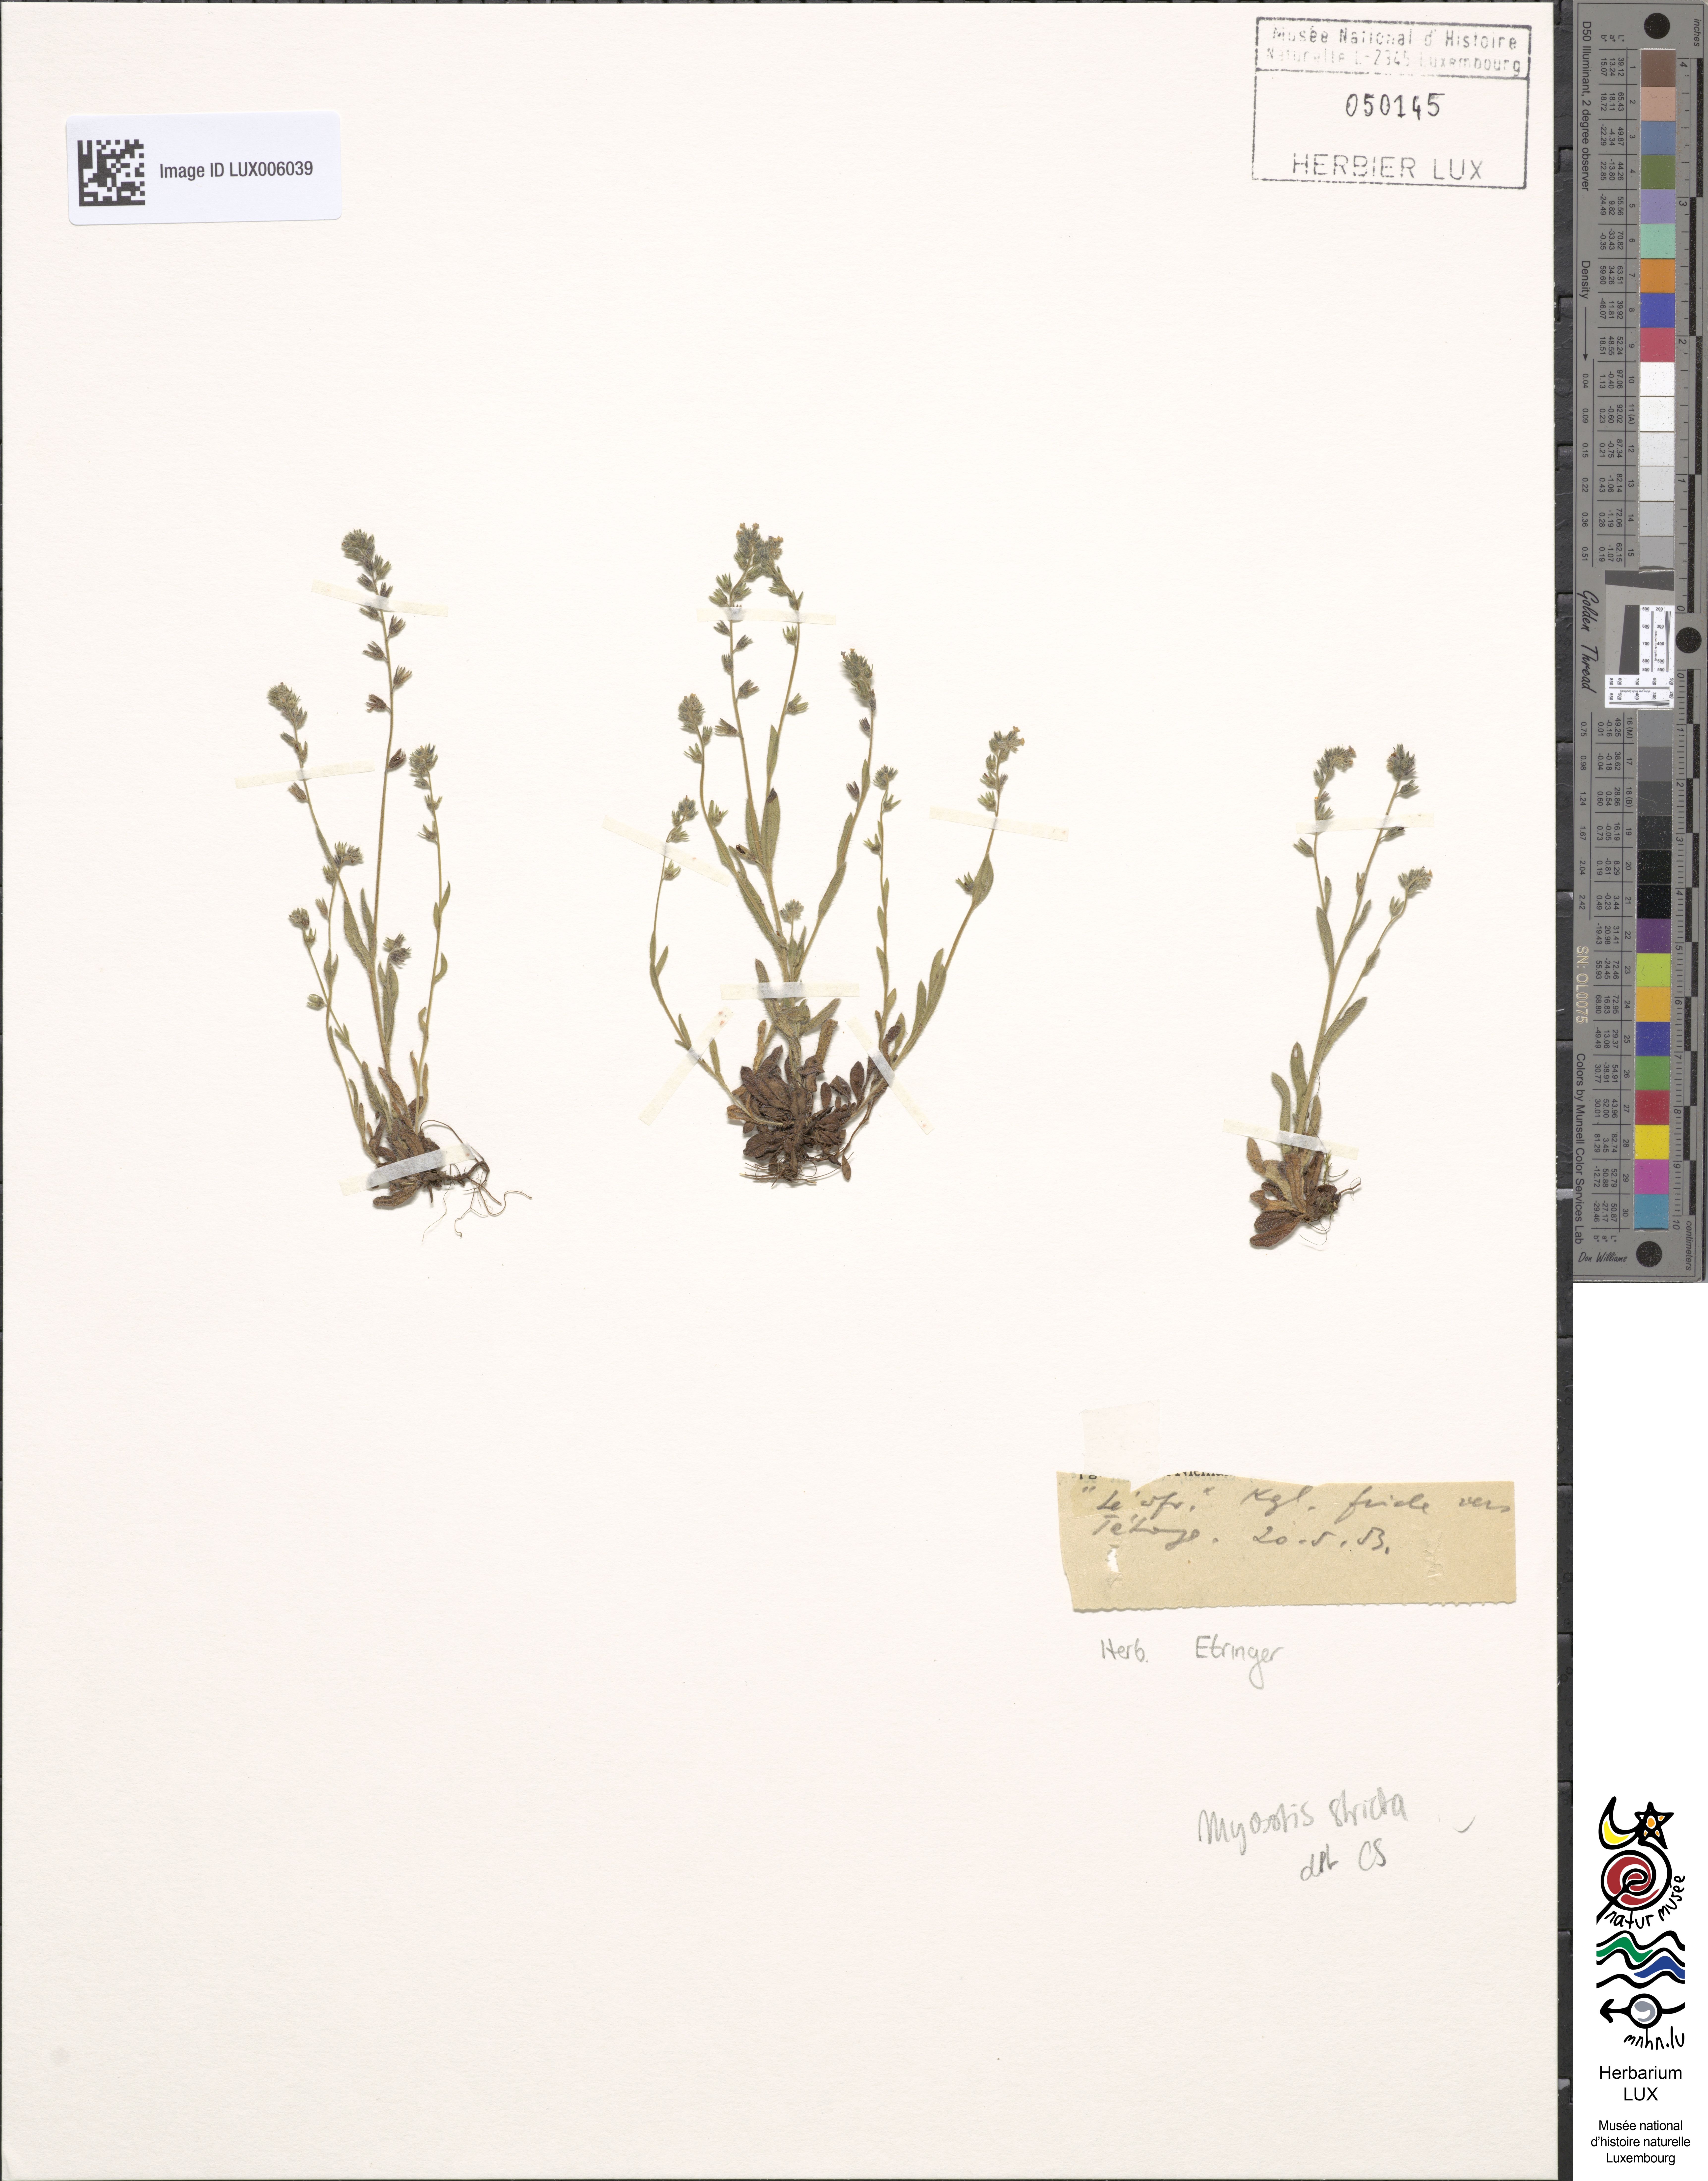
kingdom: Plantae
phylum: Tracheophyta
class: Magnoliopsida
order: Boraginales
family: Boraginaceae
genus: Myosotis
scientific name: Myosotis stricta
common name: Strict forget-me-not
